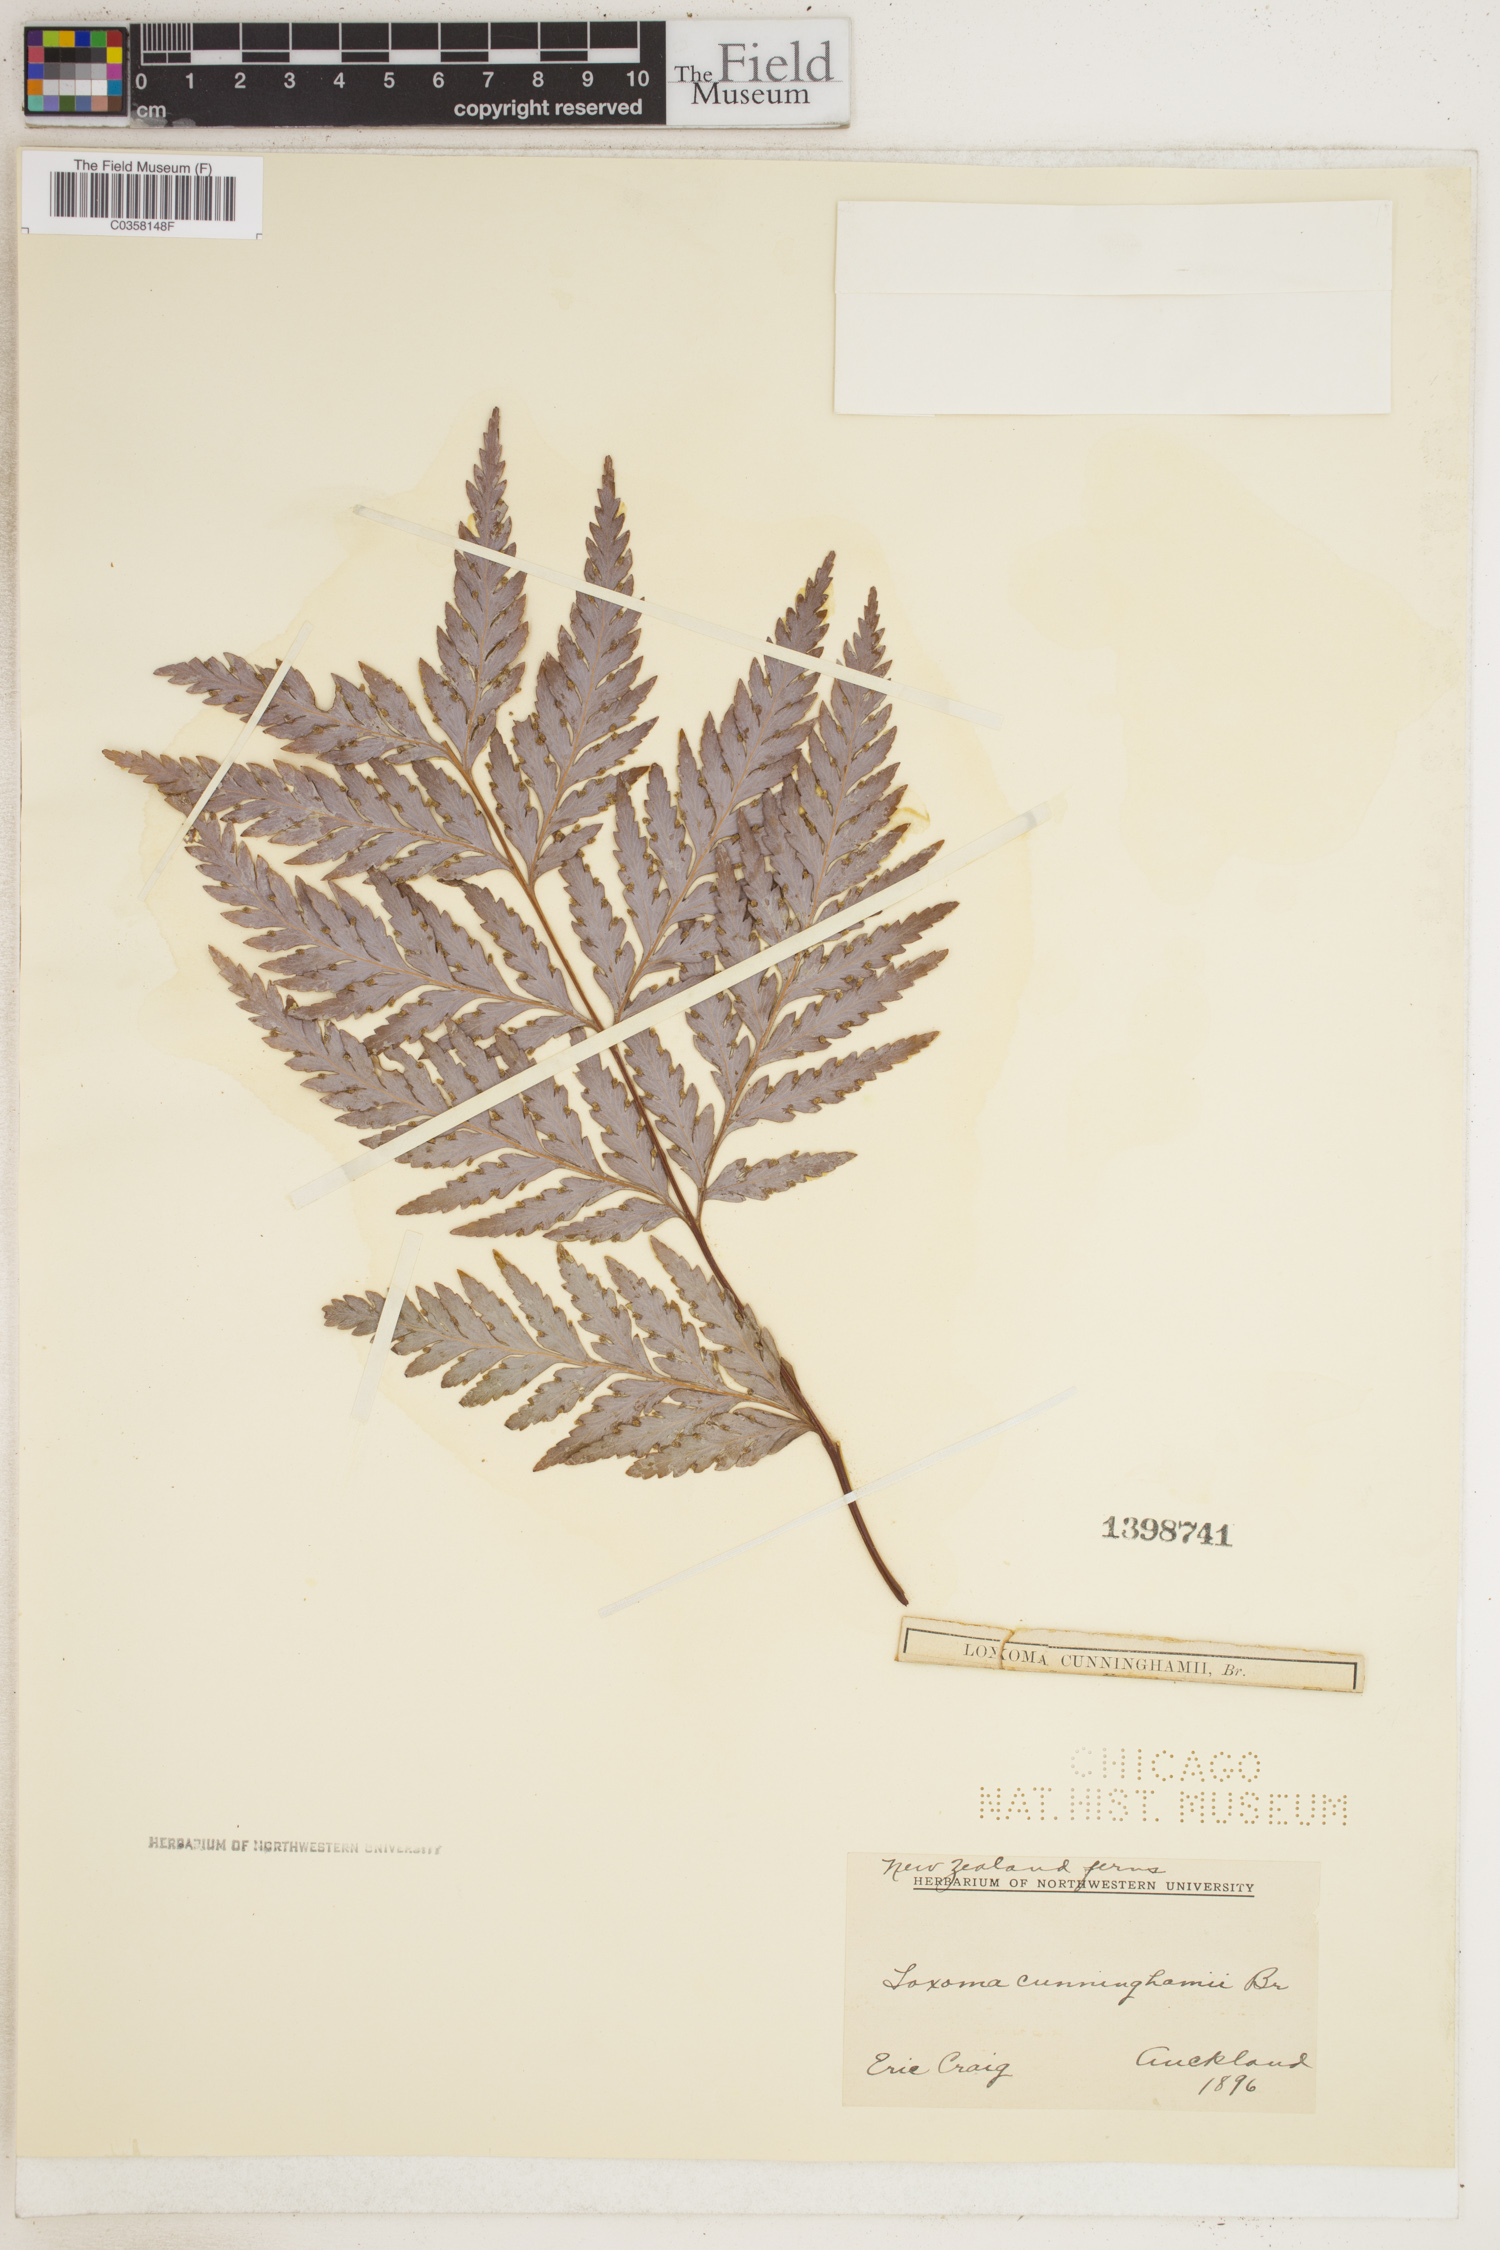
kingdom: Plantae
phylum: Tracheophyta
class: Polypodiopsida
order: Cyatheales
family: Loxsomataceae
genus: Loxsoma
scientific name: Loxsoma cunninghamii
